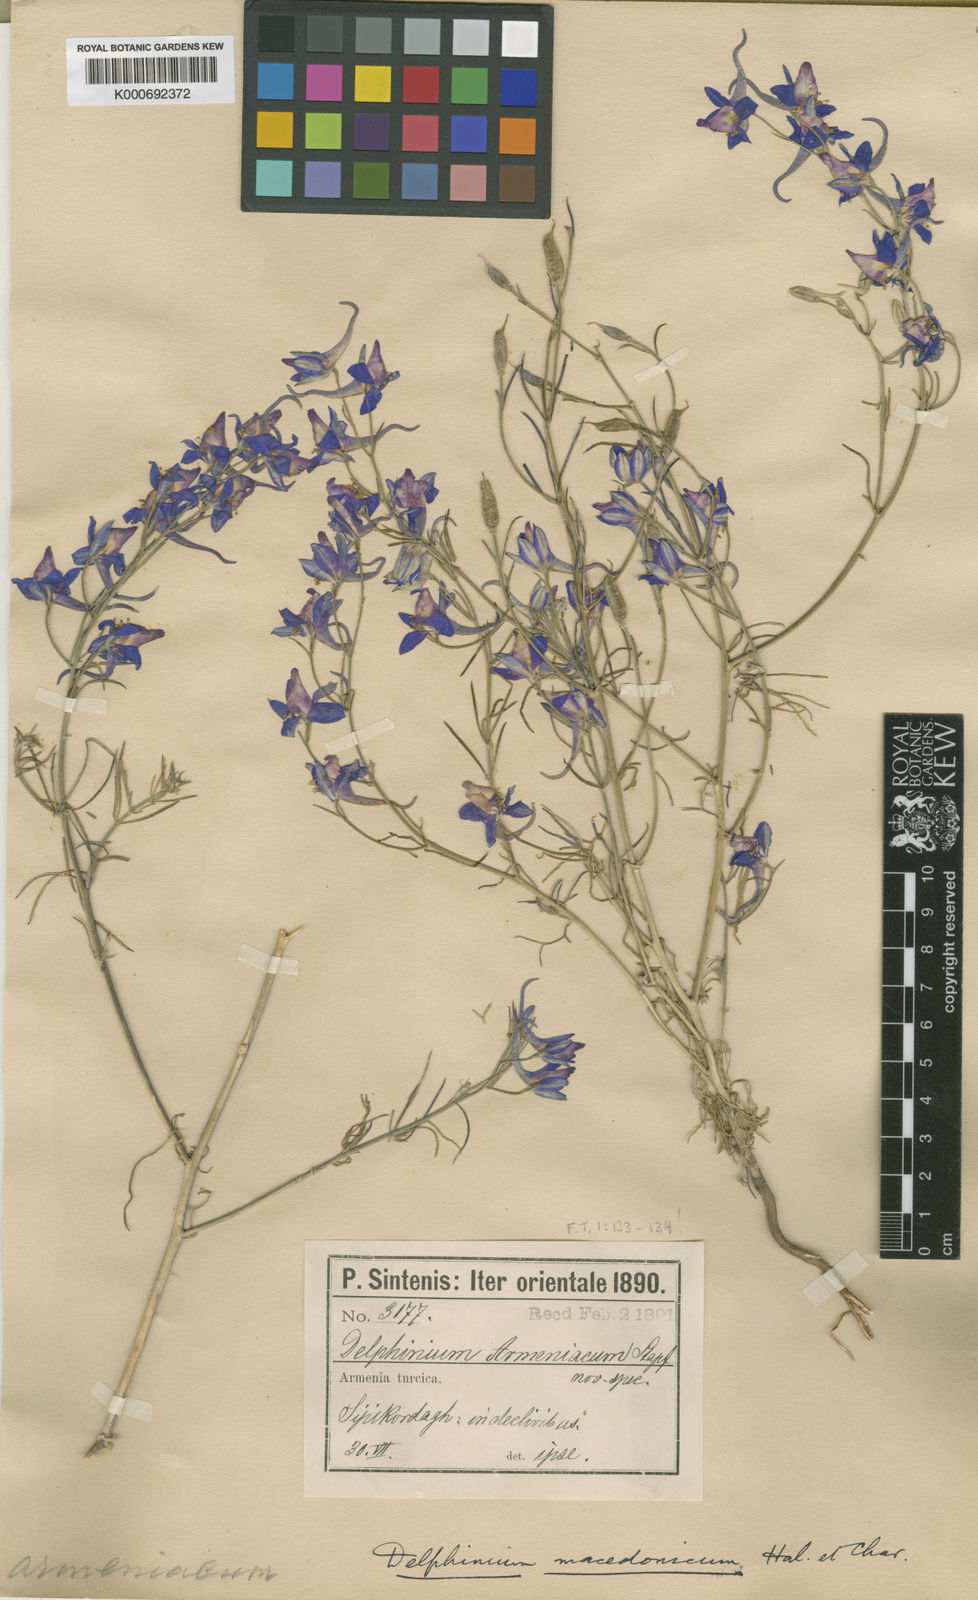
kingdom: Plantae
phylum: Tracheophyta
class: Magnoliopsida
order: Ranunculales
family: Ranunculaceae
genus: Delphinium
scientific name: Delphinium
